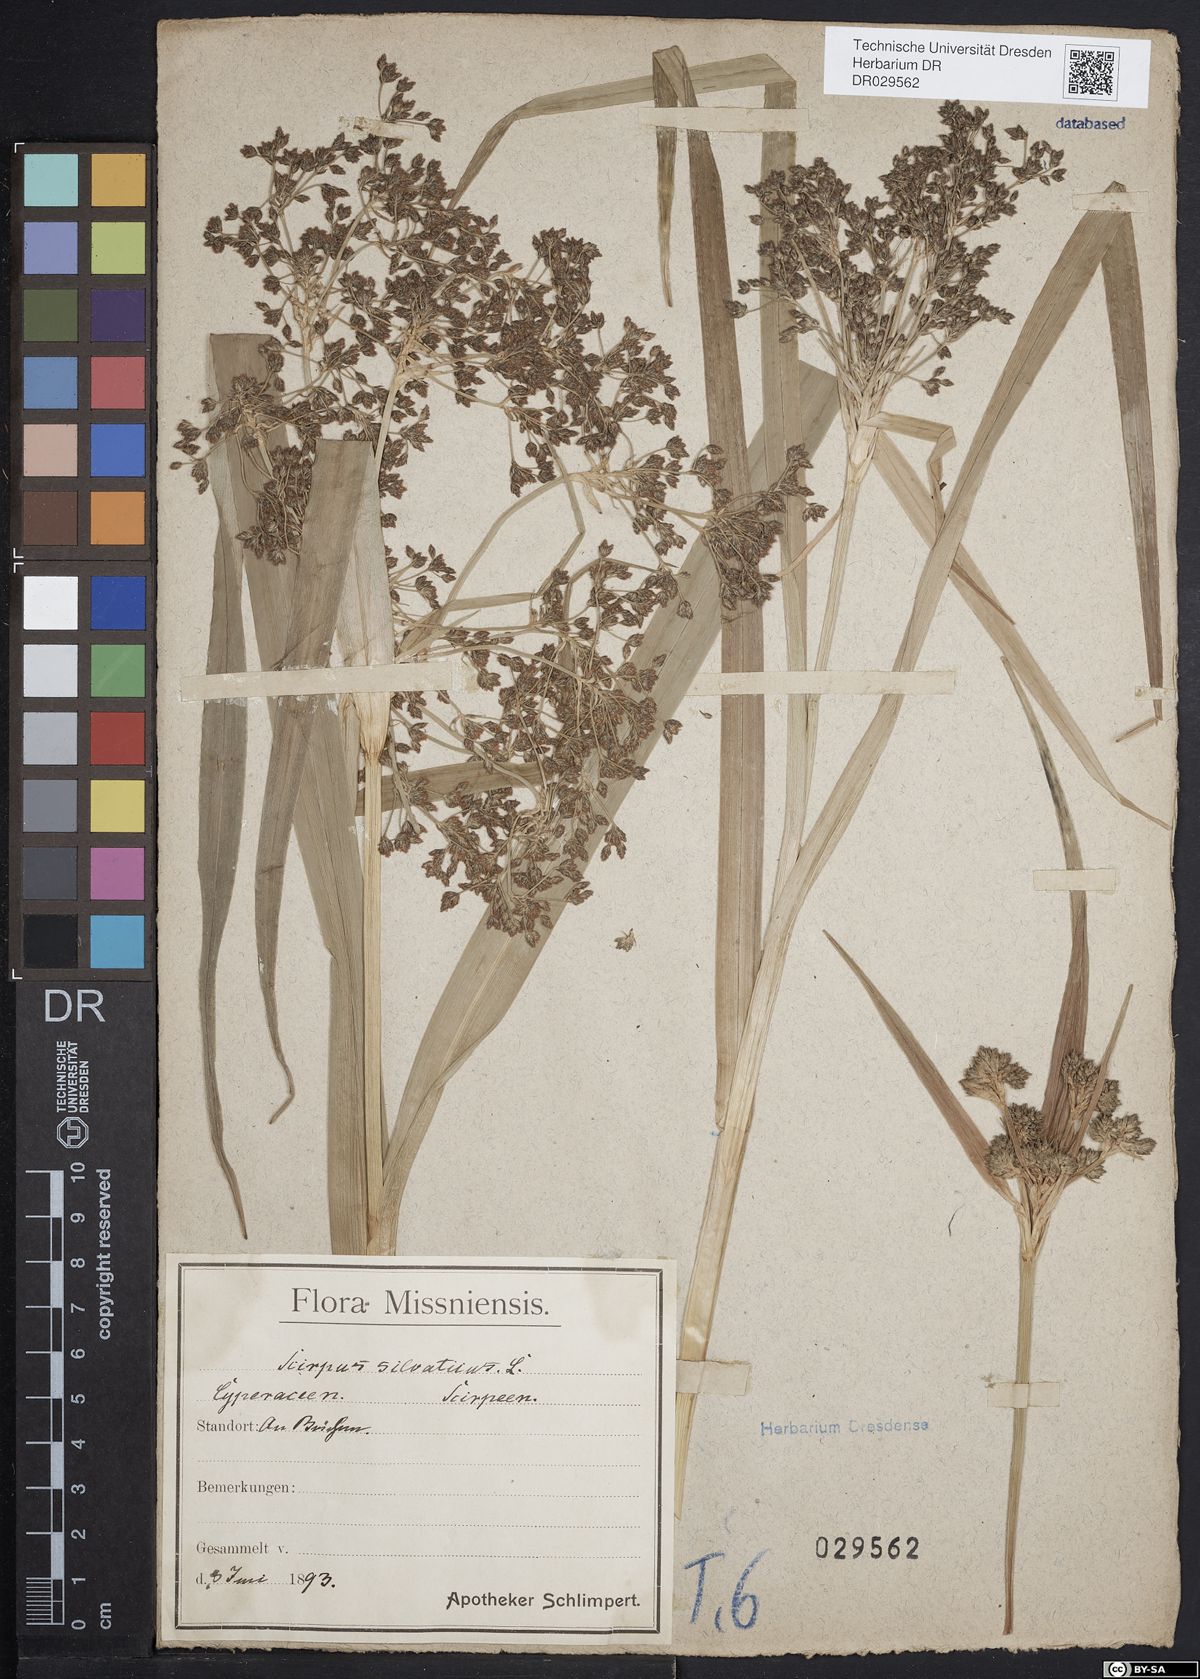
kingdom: Plantae
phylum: Tracheophyta
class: Liliopsida
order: Poales
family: Cyperaceae
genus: Scirpus
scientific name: Scirpus sylvaticus
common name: Wood club-rush
